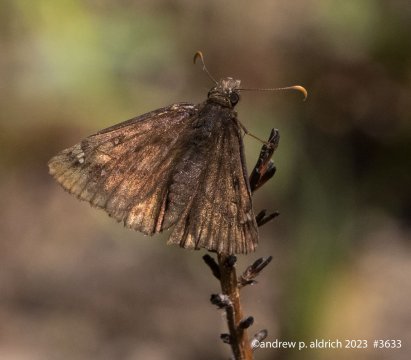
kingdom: Animalia
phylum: Arthropoda
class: Insecta
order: Lepidoptera
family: Hesperiidae
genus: Erynnis
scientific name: Erynnis
